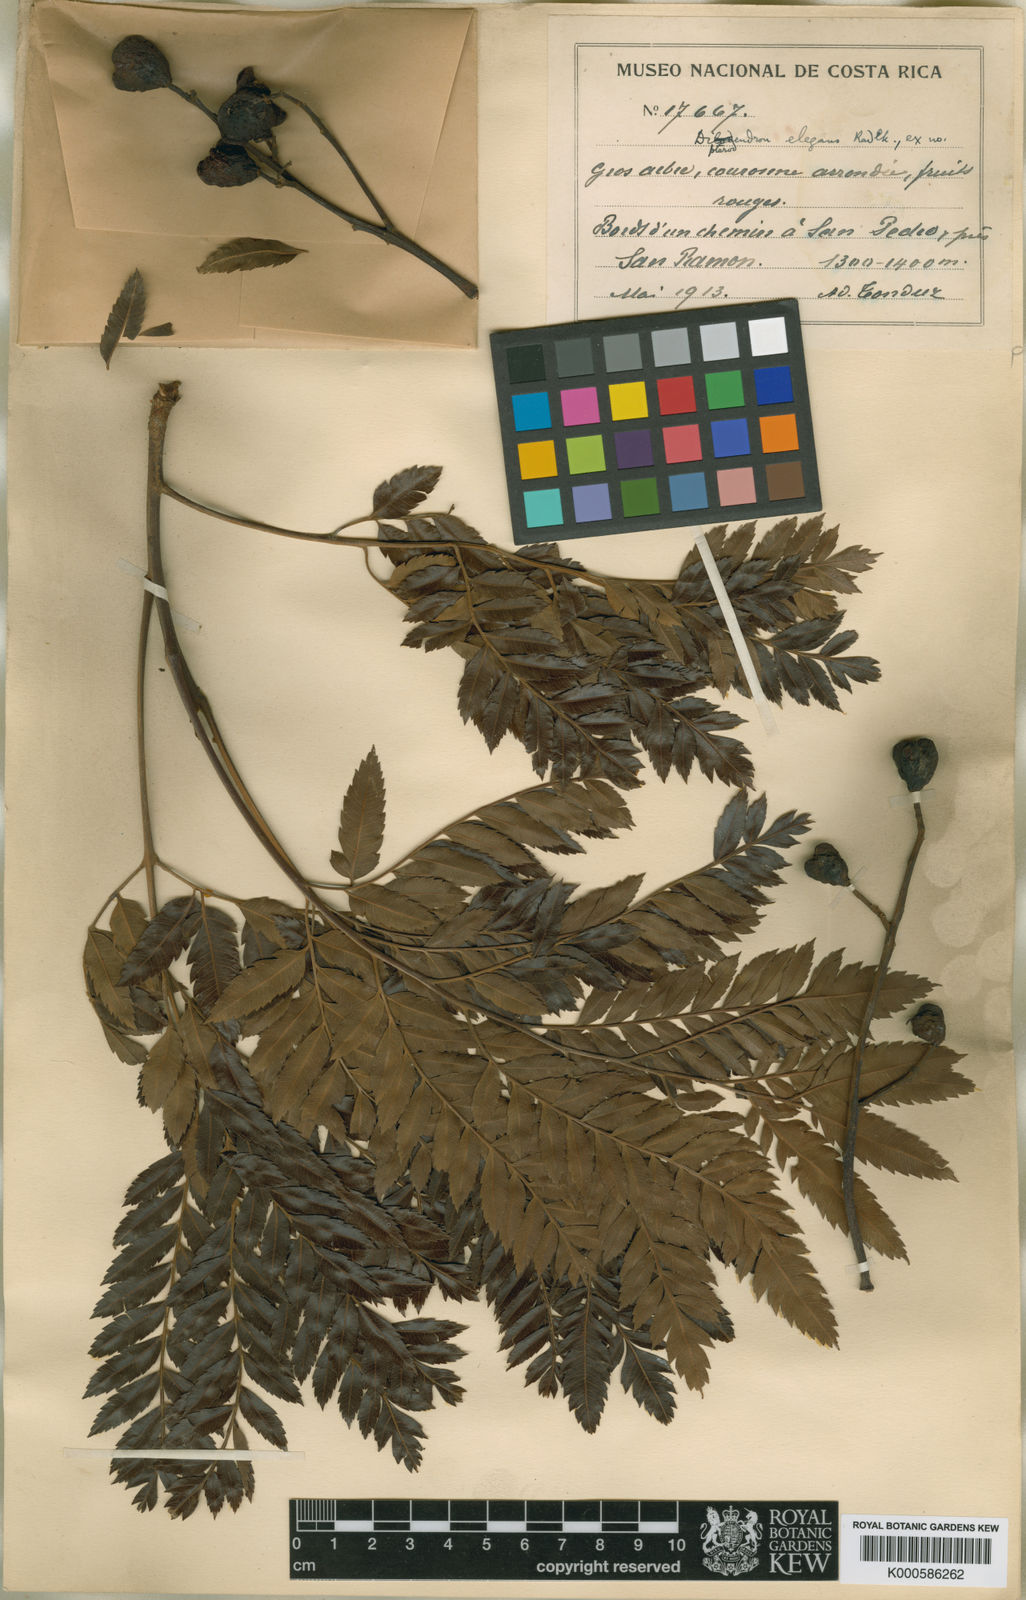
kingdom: Plantae
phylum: Tracheophyta
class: Magnoliopsida
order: Sapindales
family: Sapindaceae
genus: Dilodendron
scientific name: Dilodendron elegans
